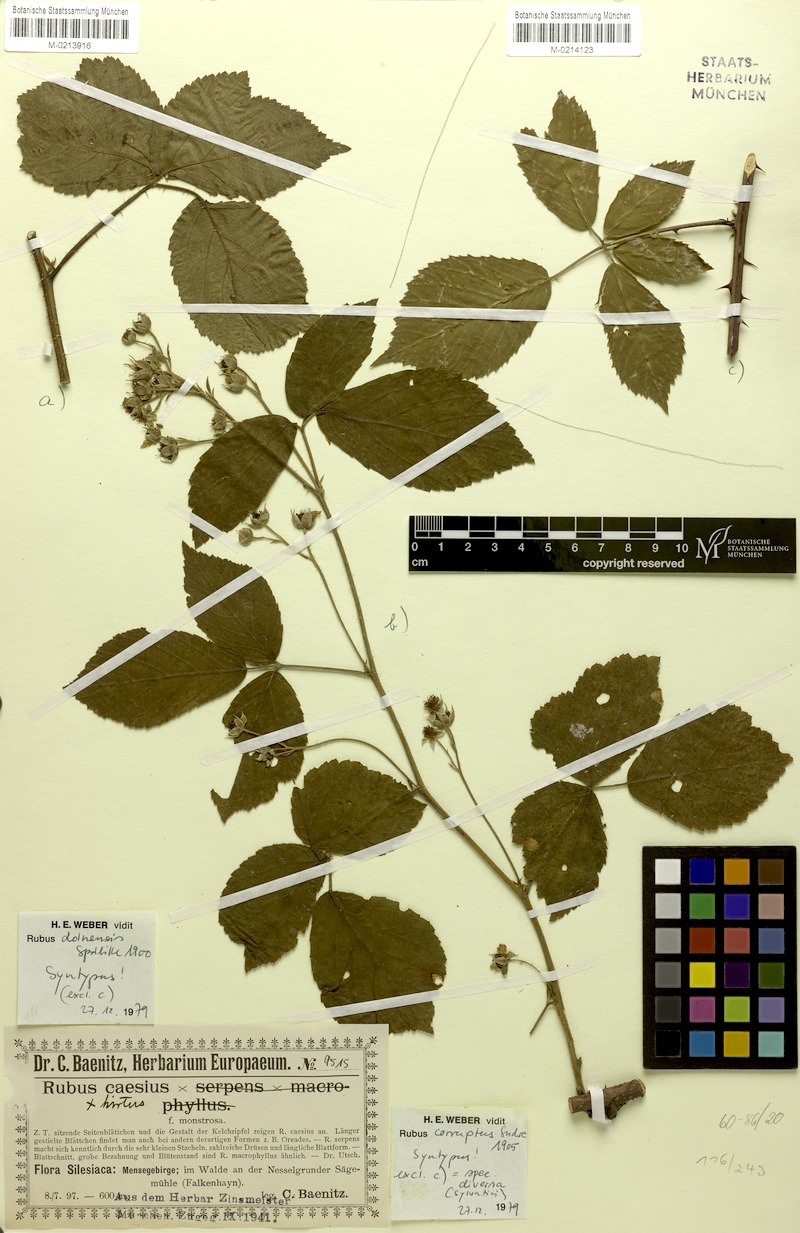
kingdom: Plantae
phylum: Tracheophyta
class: Magnoliopsida
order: Rosales
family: Rosaceae
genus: Rubus
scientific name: Rubus
